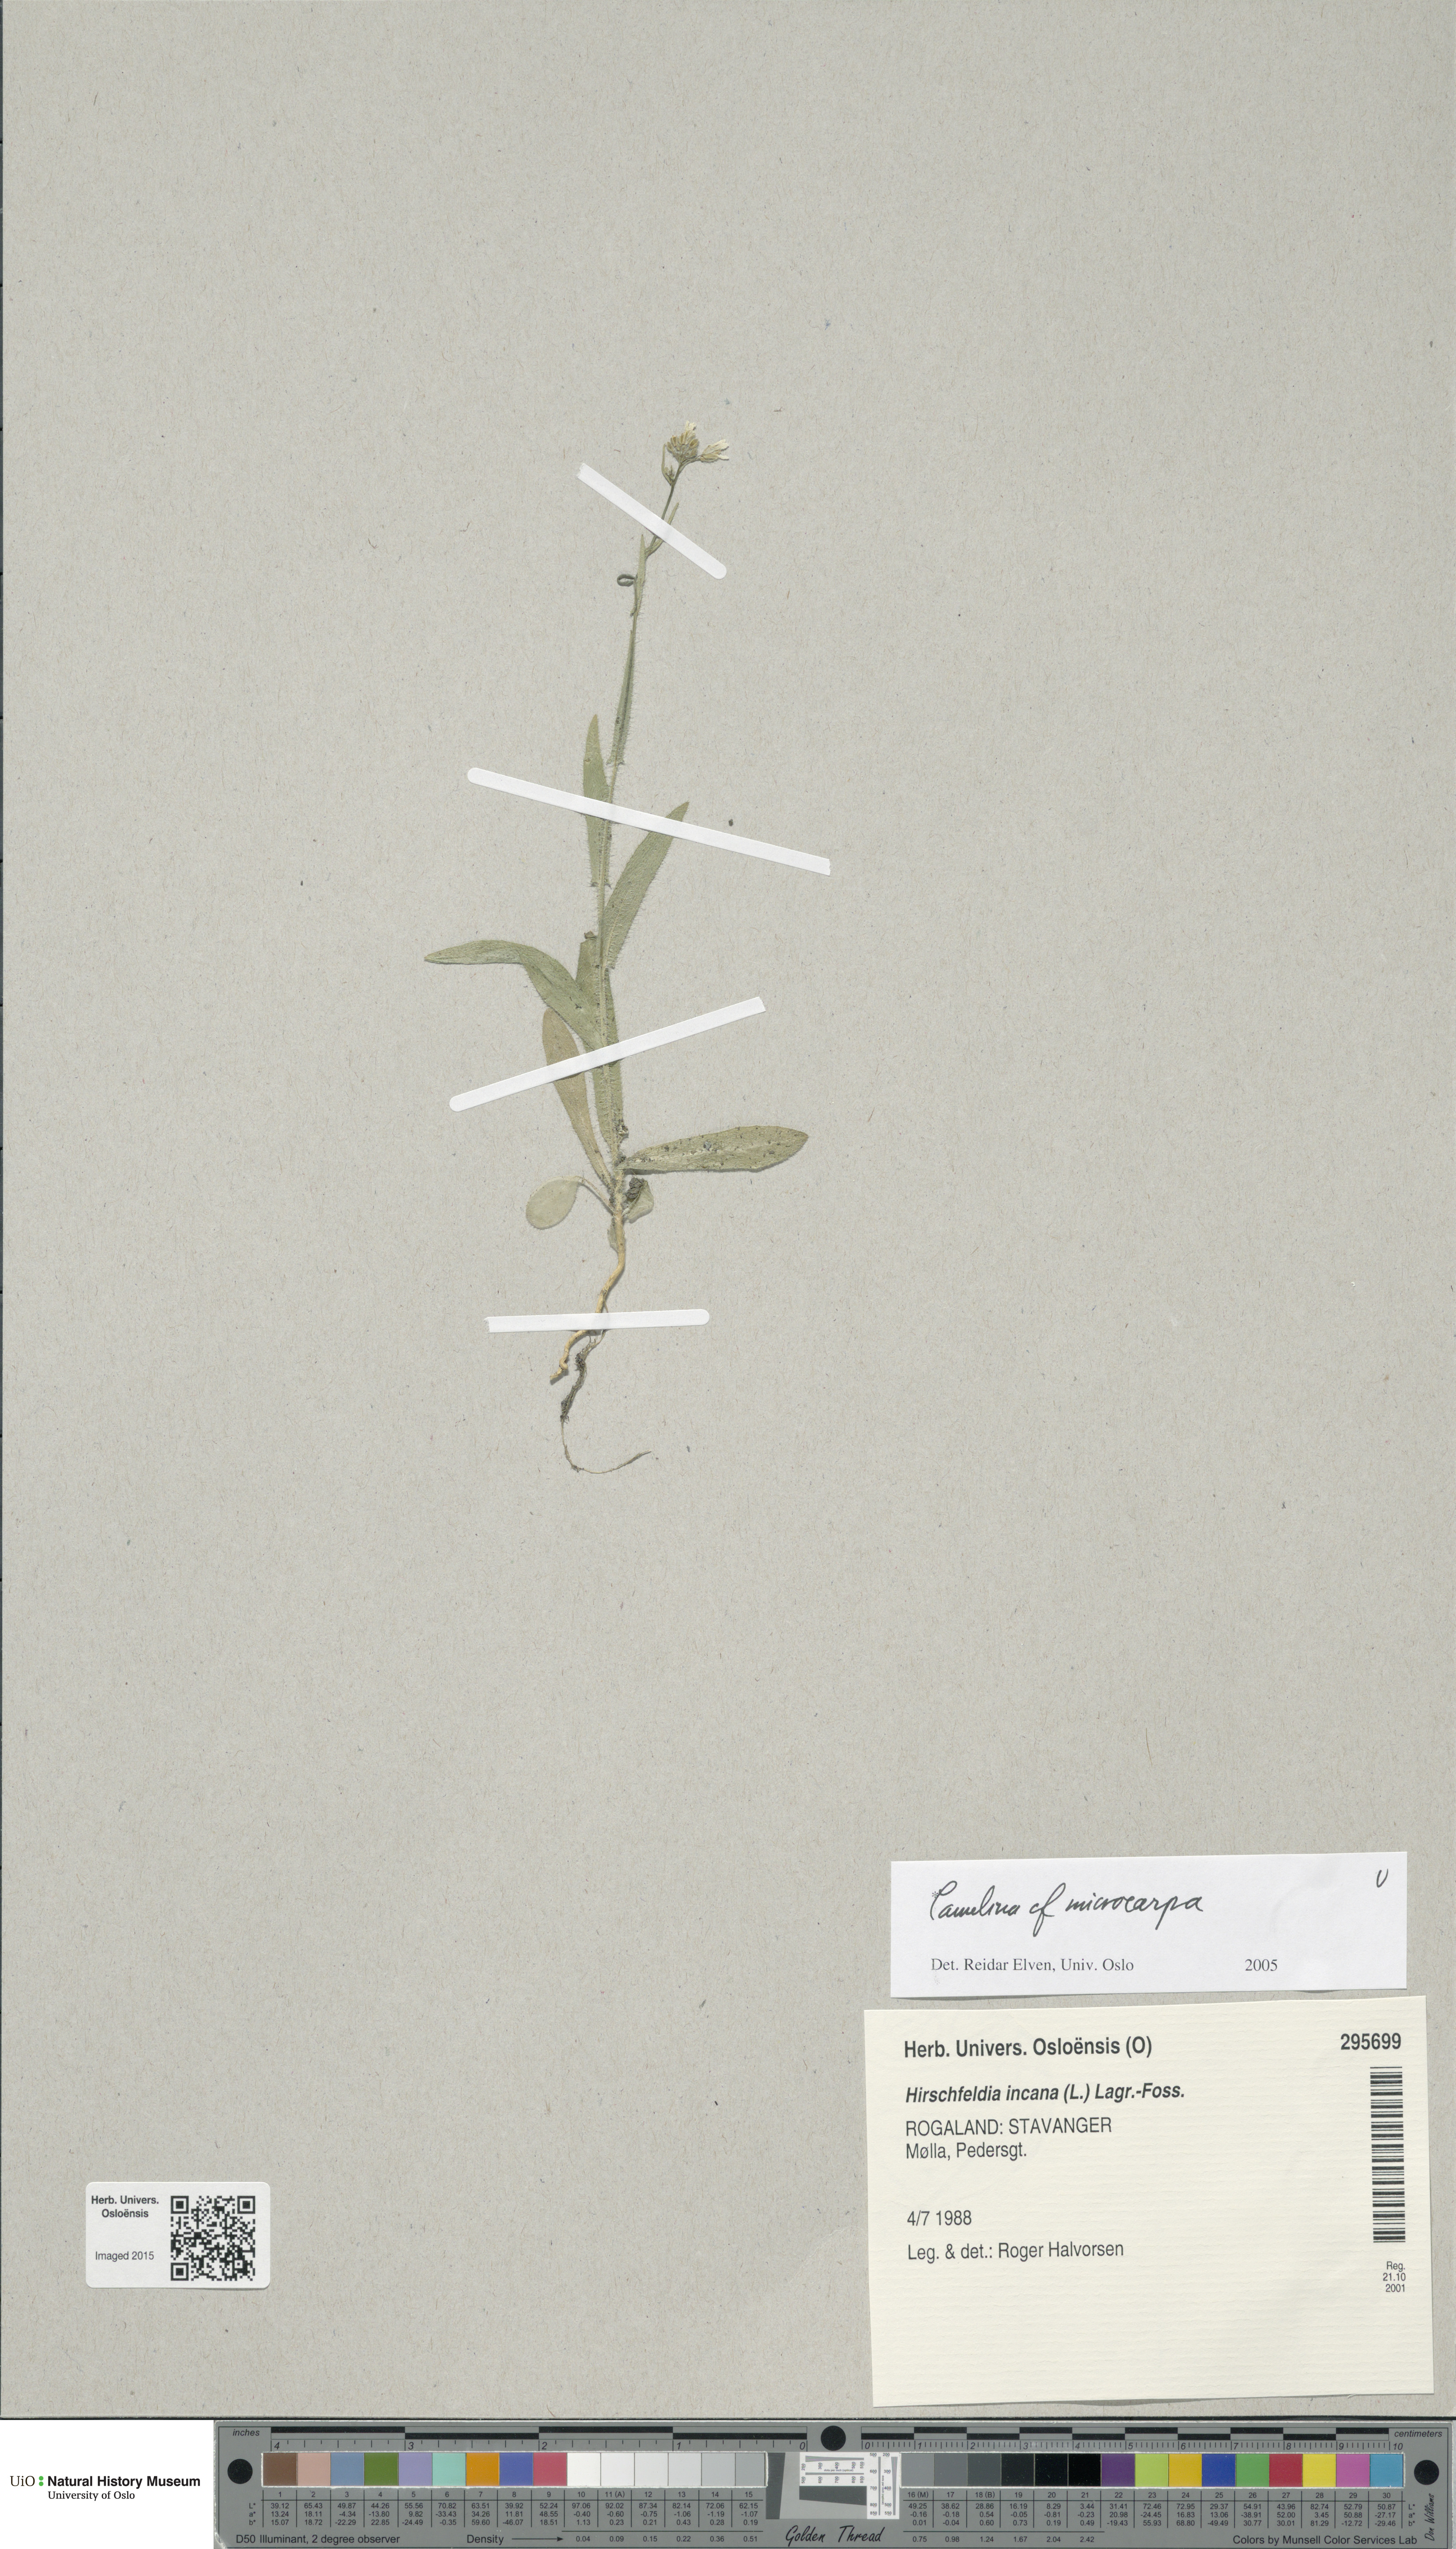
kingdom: Plantae
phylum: Tracheophyta
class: Magnoliopsida
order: Brassicales
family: Brassicaceae
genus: Camelina
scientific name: Camelina sativa
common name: Gold-of-pleasure
